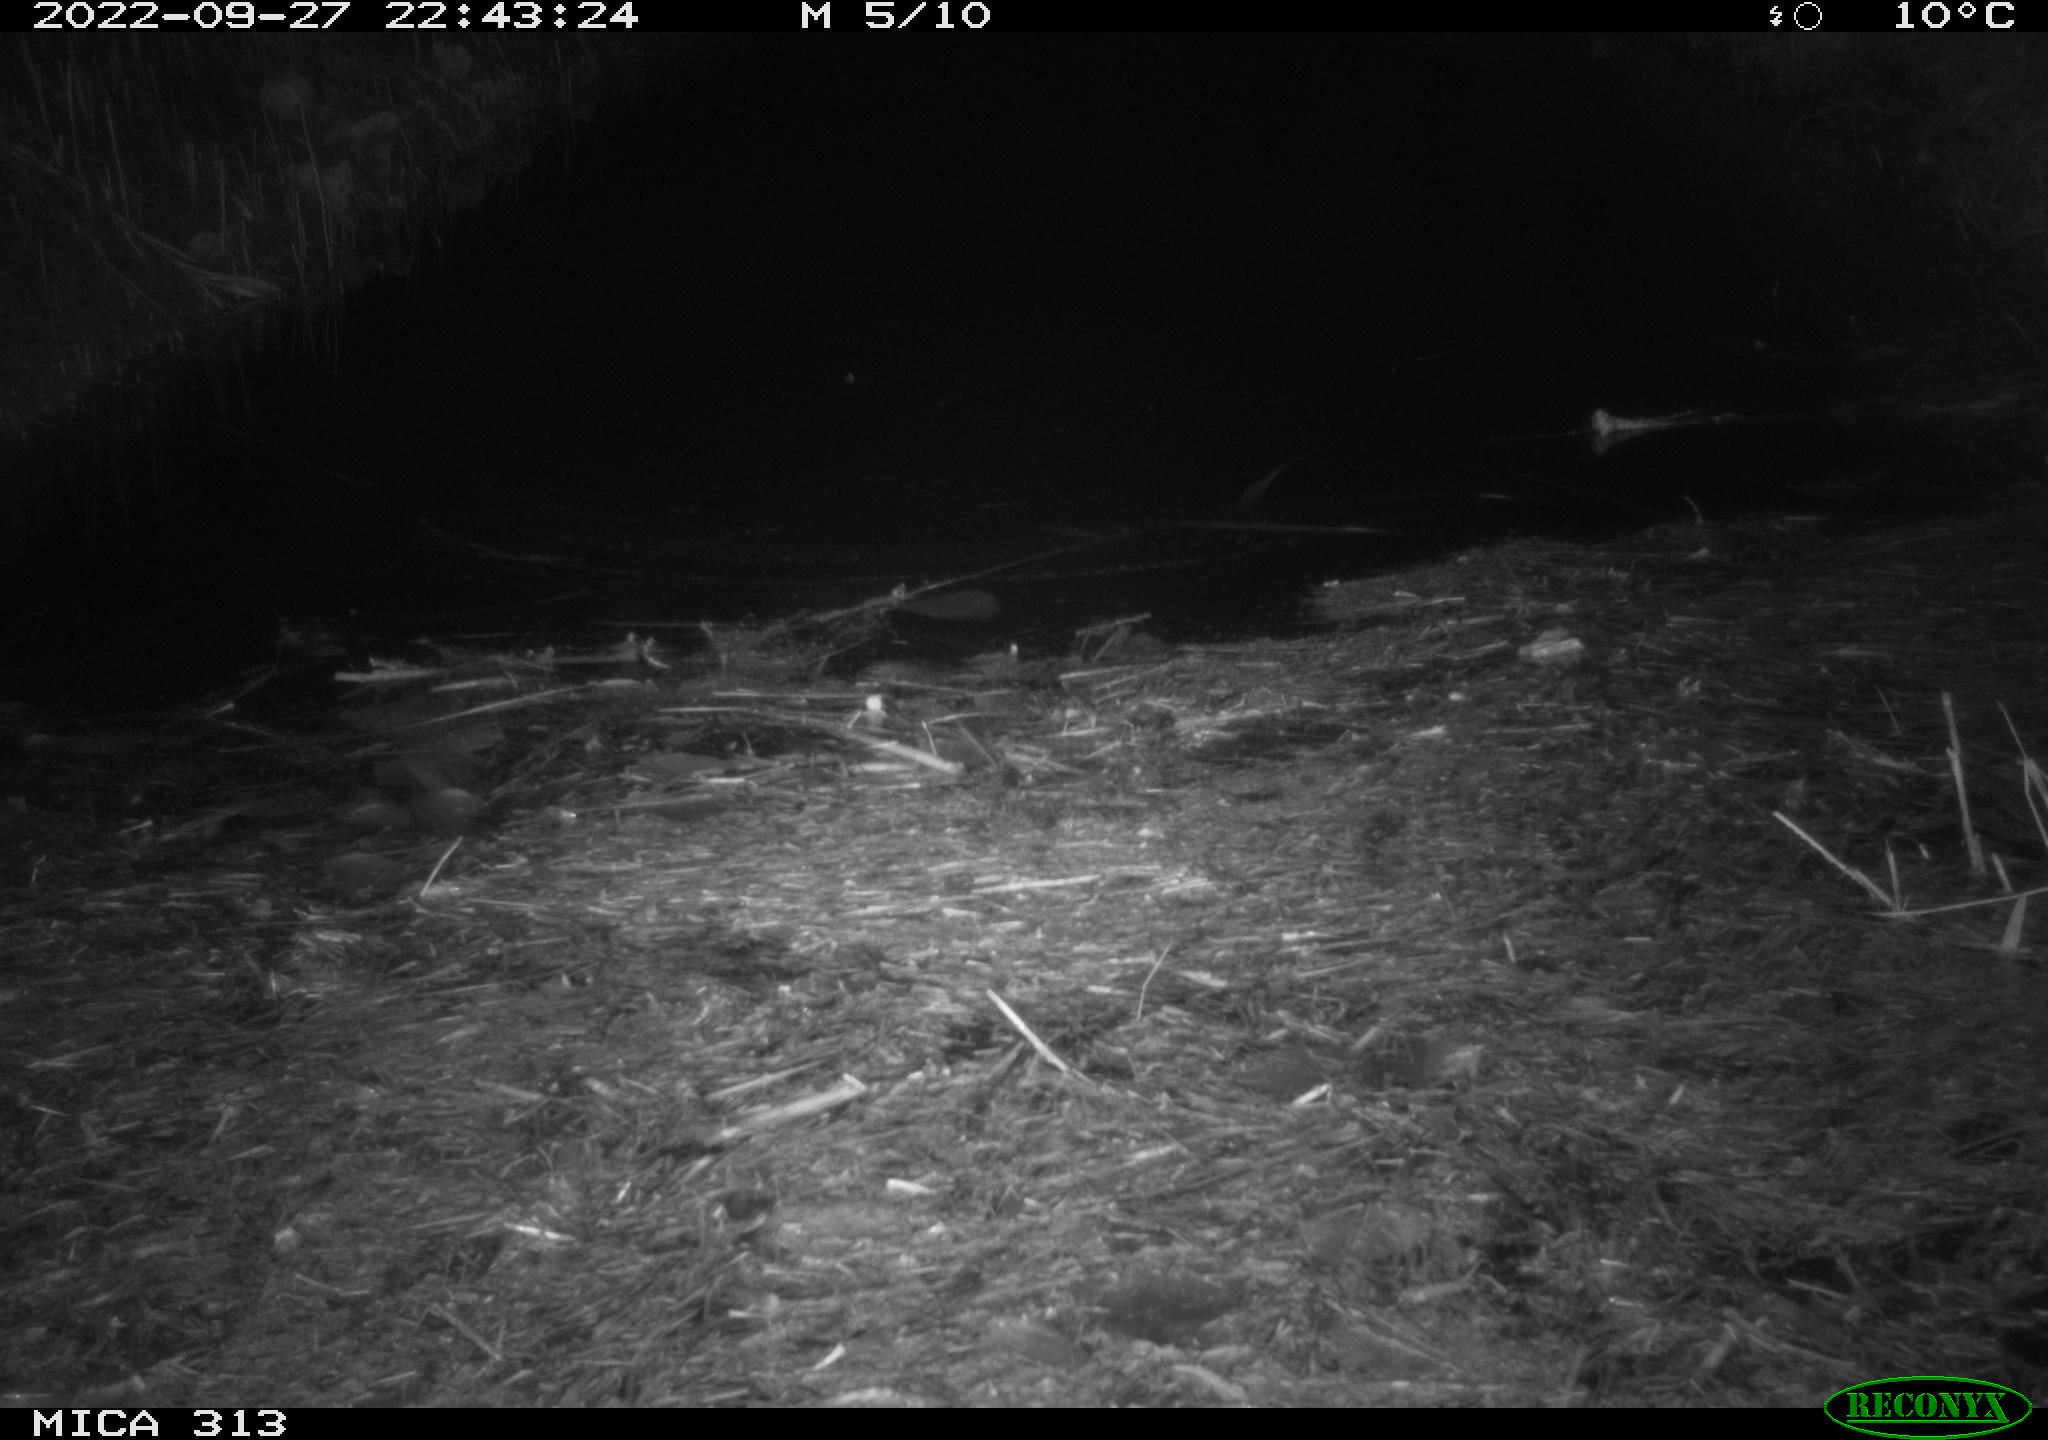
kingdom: Animalia
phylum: Chordata
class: Mammalia
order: Rodentia
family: Muridae
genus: Rattus
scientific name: Rattus norvegicus
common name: Brown rat
